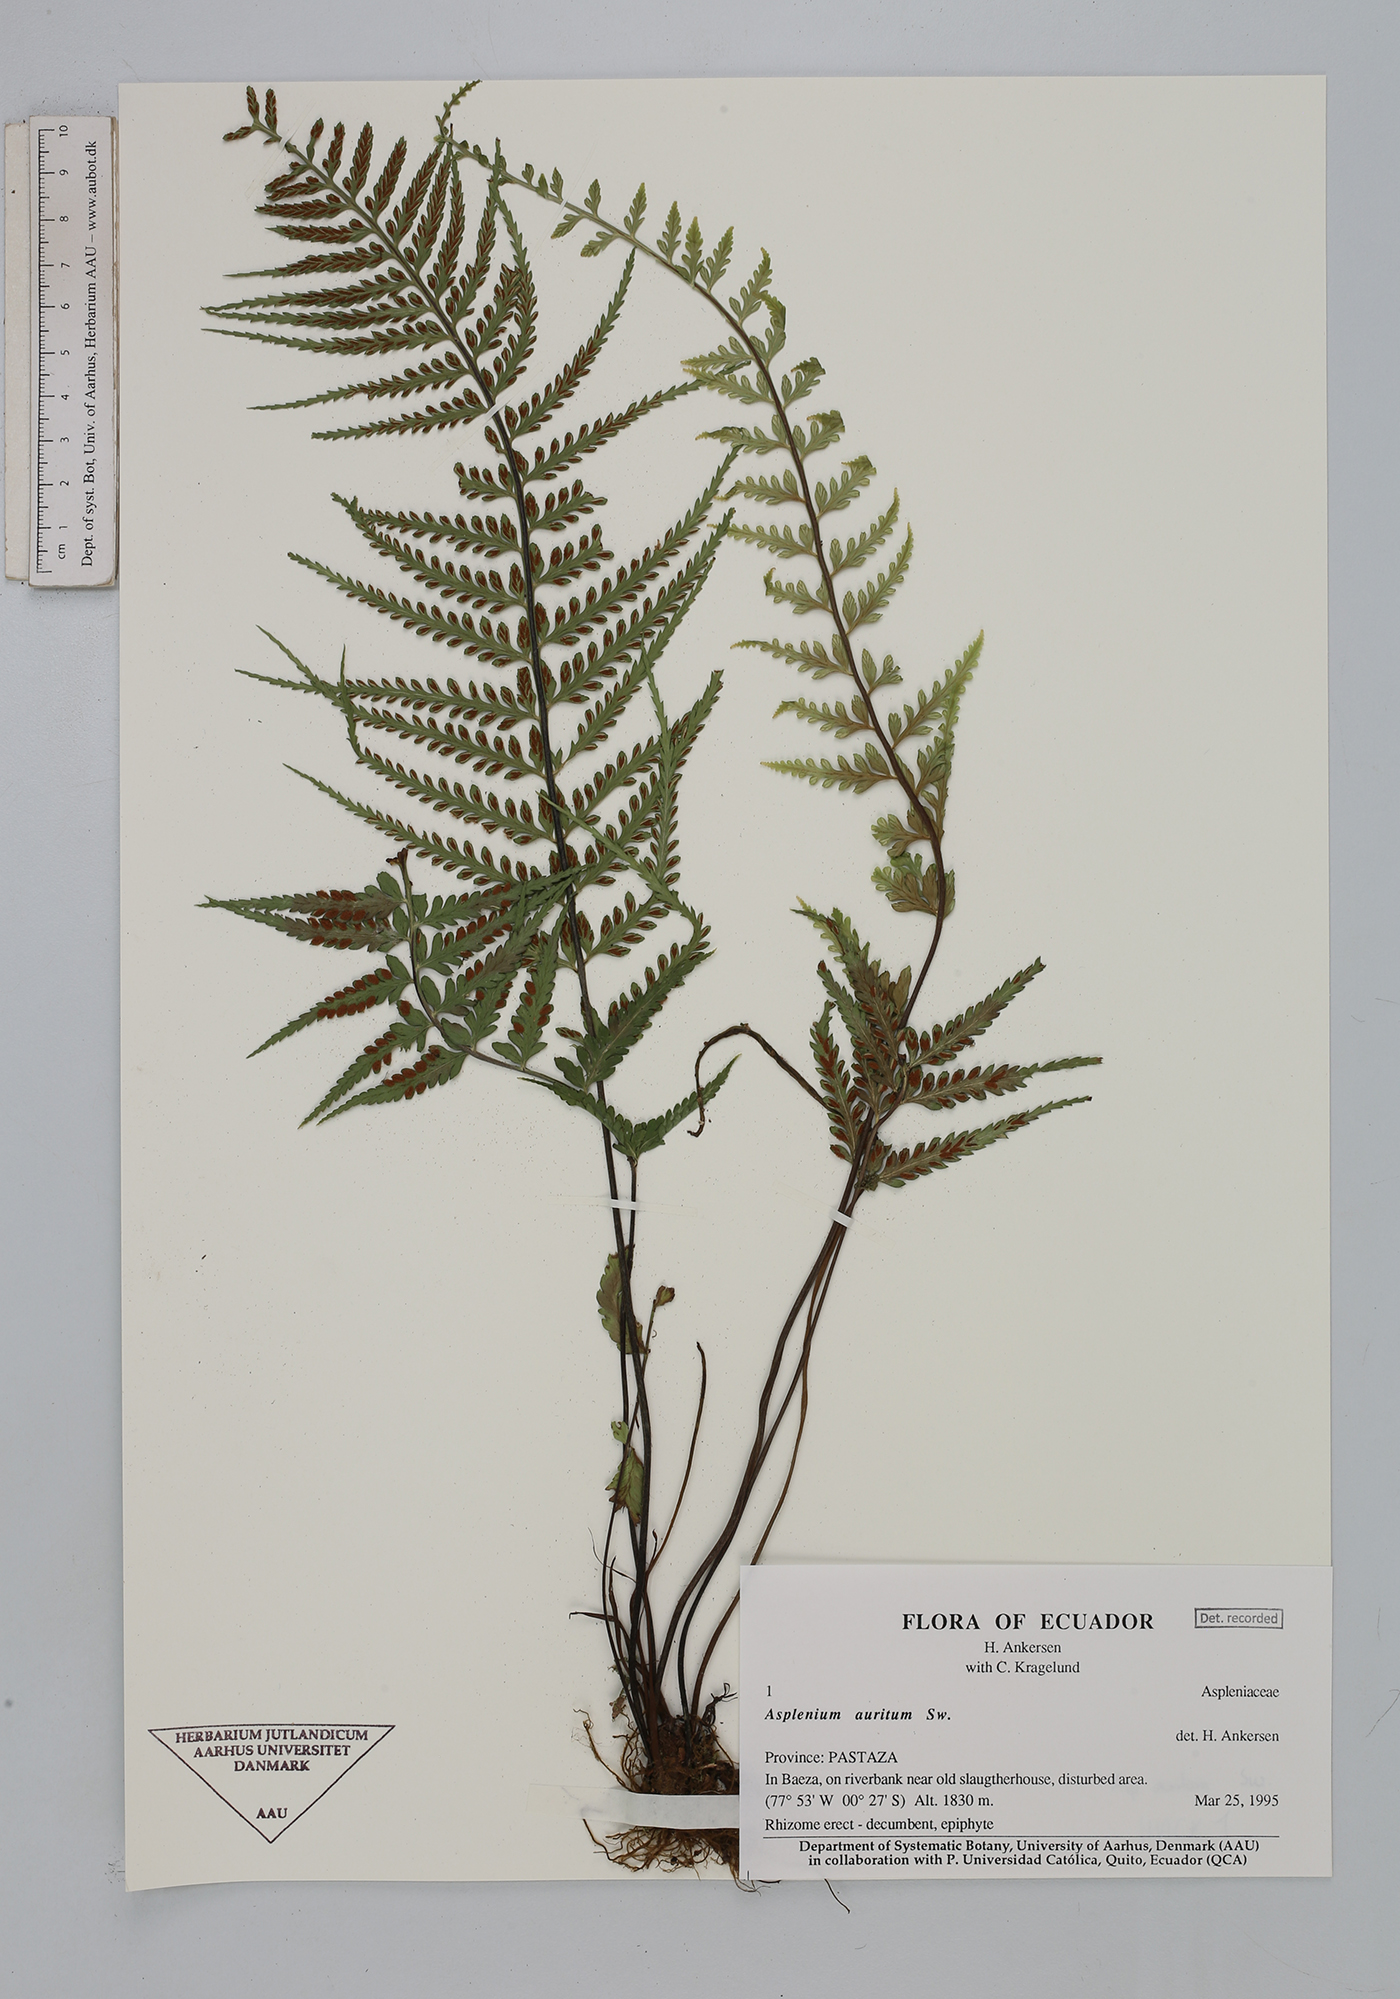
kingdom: Plantae
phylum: Tracheophyta
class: Polypodiopsida
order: Polypodiales
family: Aspleniaceae
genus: Asplenium
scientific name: Asplenium auritum
